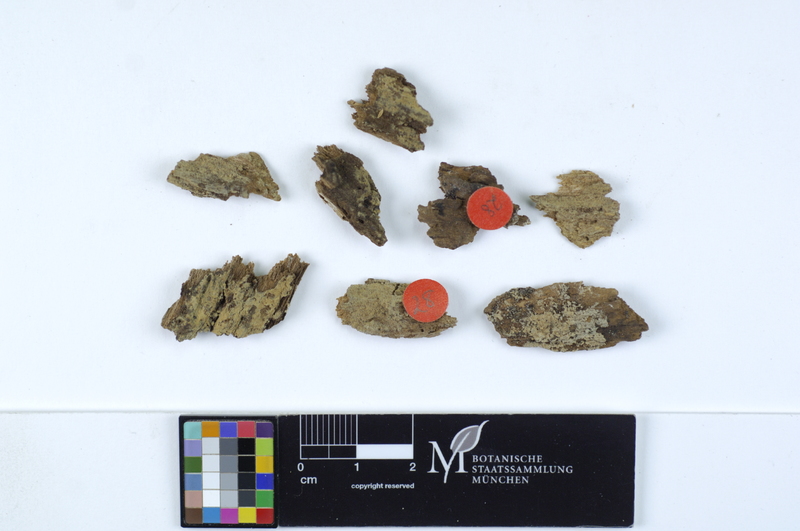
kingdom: Fungi
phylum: Basidiomycota
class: Agaricomycetes
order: Cantharellales
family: Botryobasidiaceae
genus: Botryobasidium
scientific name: Botryobasidium conspersum
